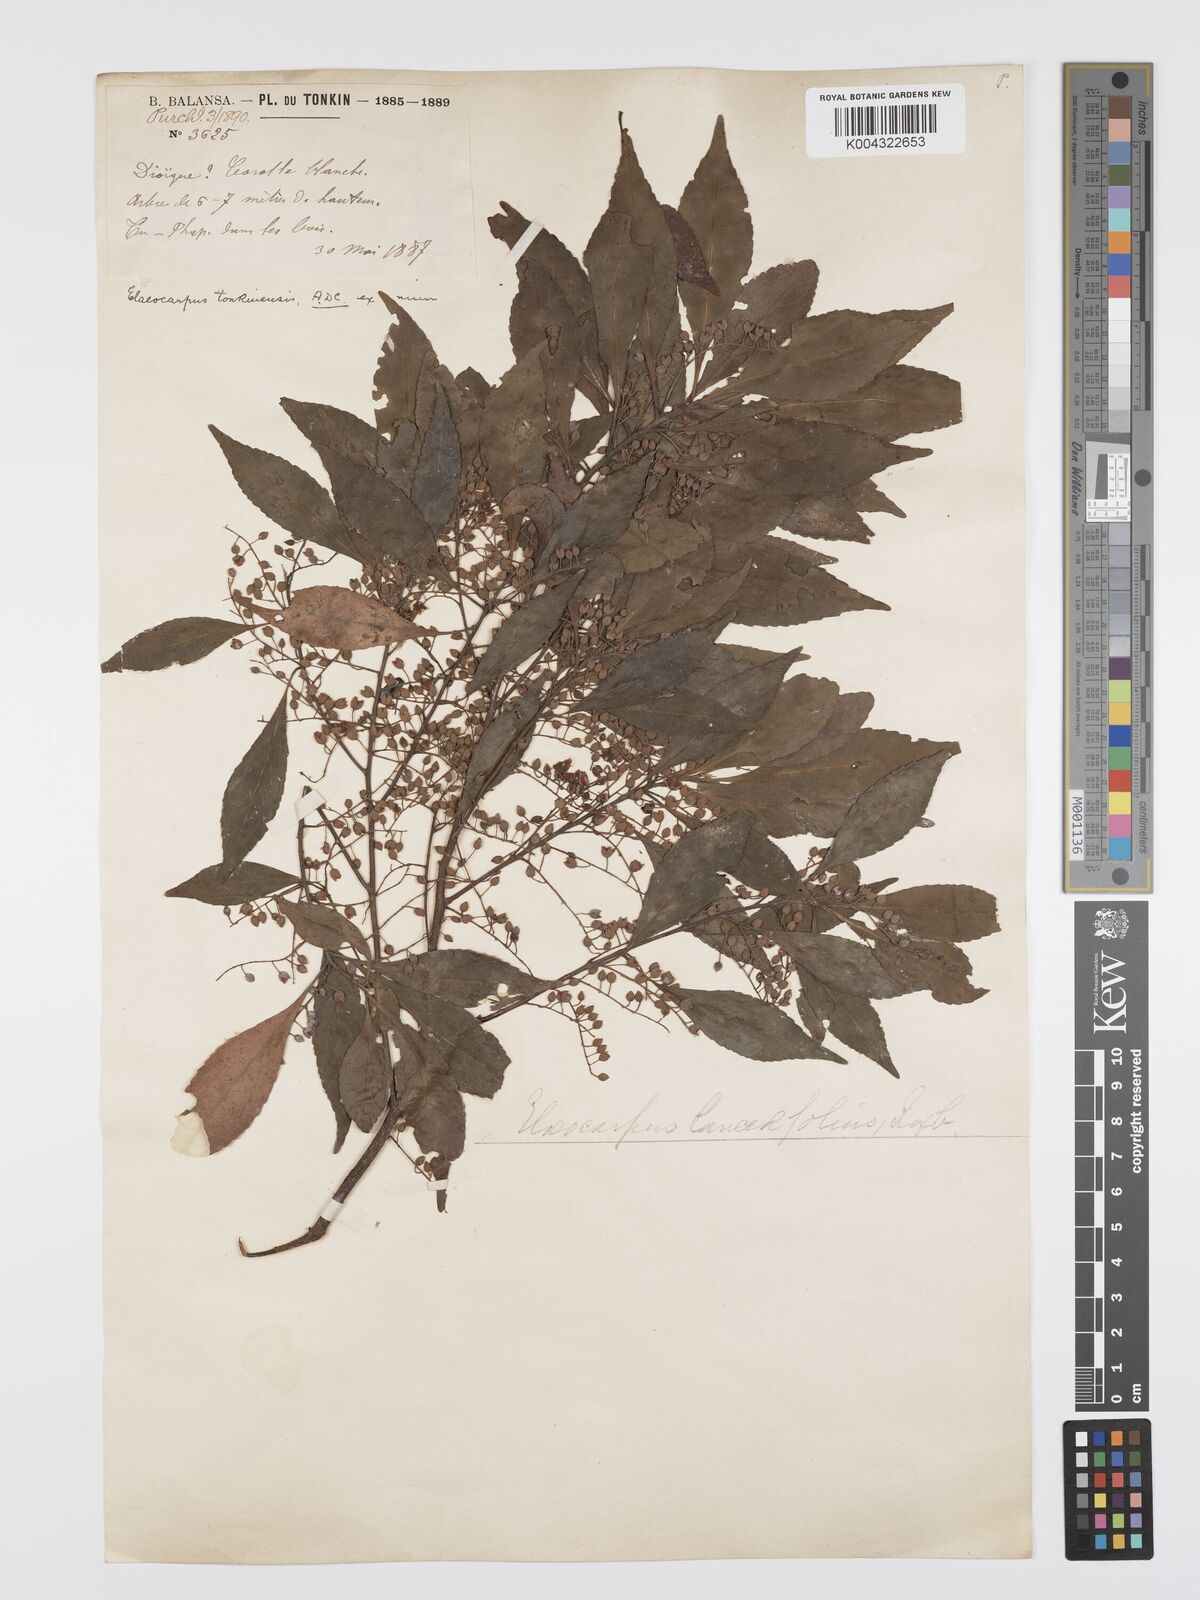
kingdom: Plantae
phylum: Tracheophyta
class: Magnoliopsida
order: Oxalidales
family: Elaeocarpaceae
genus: Elaeocarpus
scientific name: Elaeocarpus tonkinensis
